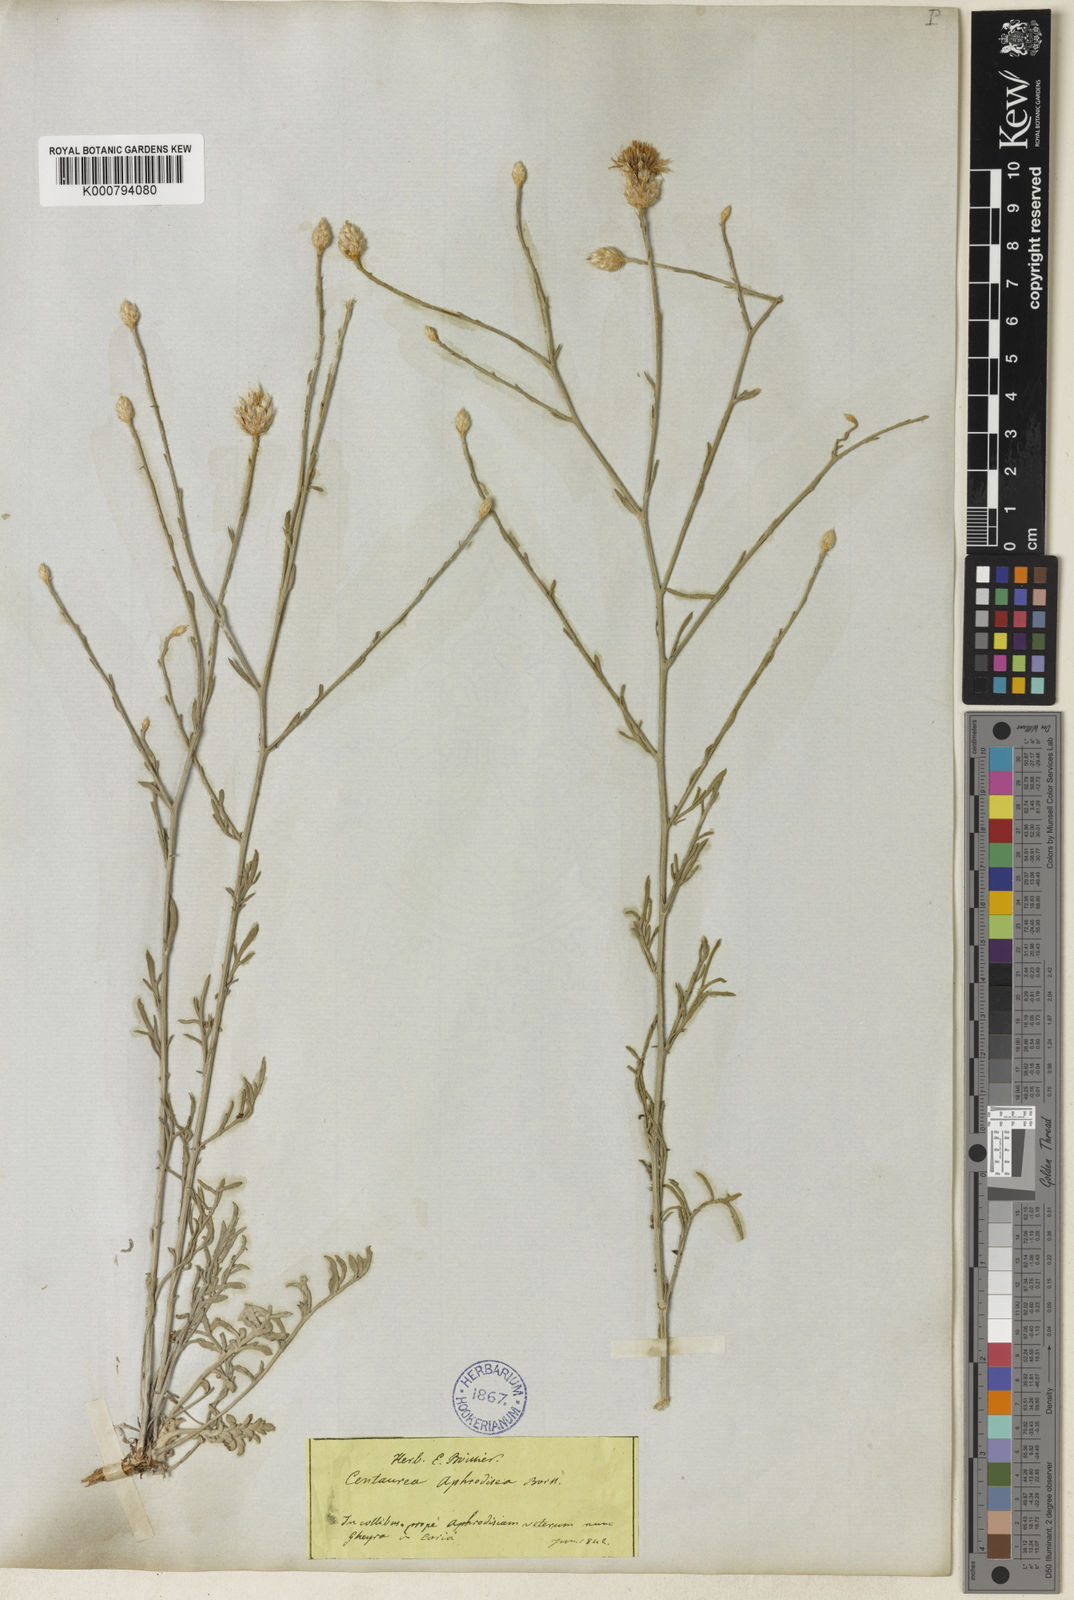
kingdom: Plantae
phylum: Tracheophyta
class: Magnoliopsida
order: Asterales
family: Asteraceae
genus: Centaurea
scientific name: Centaurea aphrodisea
